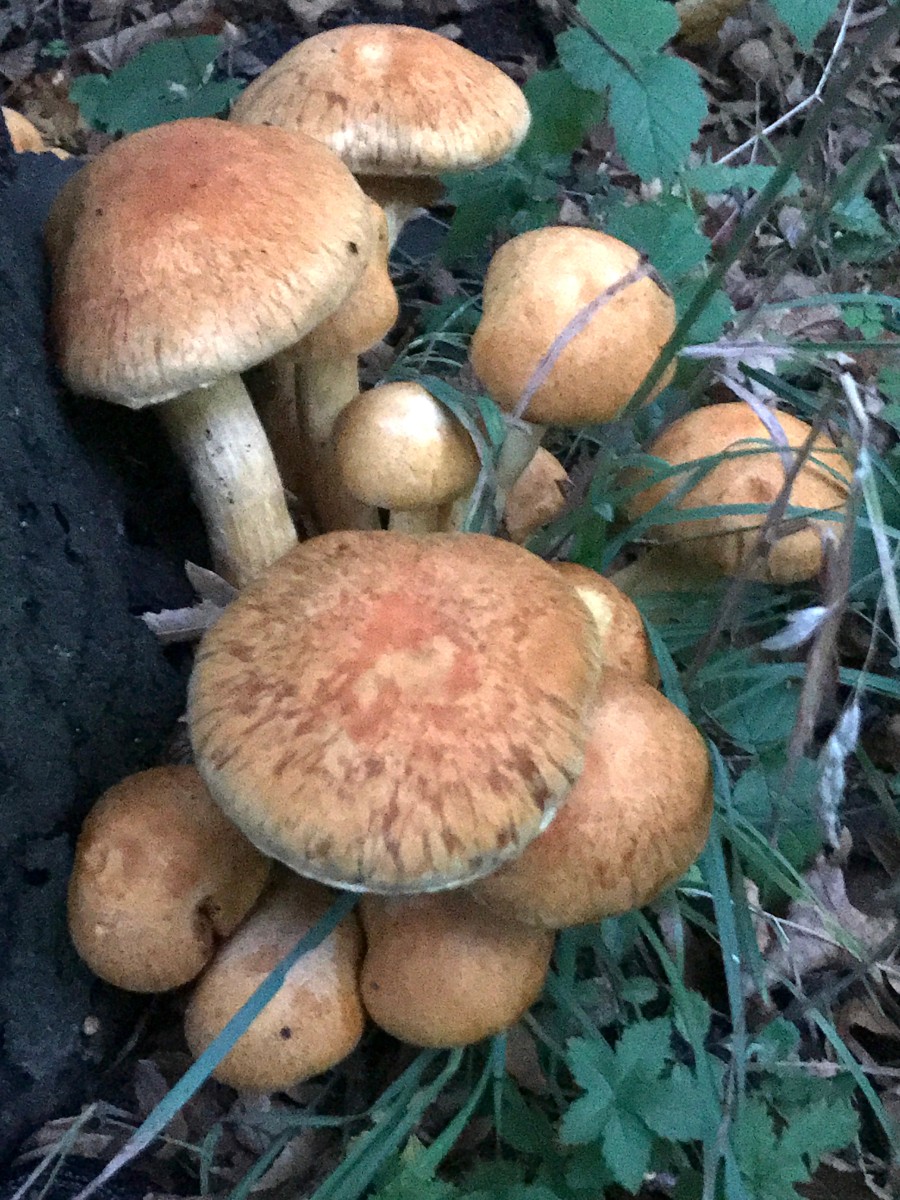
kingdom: Fungi
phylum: Basidiomycota
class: Agaricomycetes
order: Agaricales
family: Hymenogastraceae
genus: Gymnopilus
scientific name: Gymnopilus spectabilis
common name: fibret flammehat
